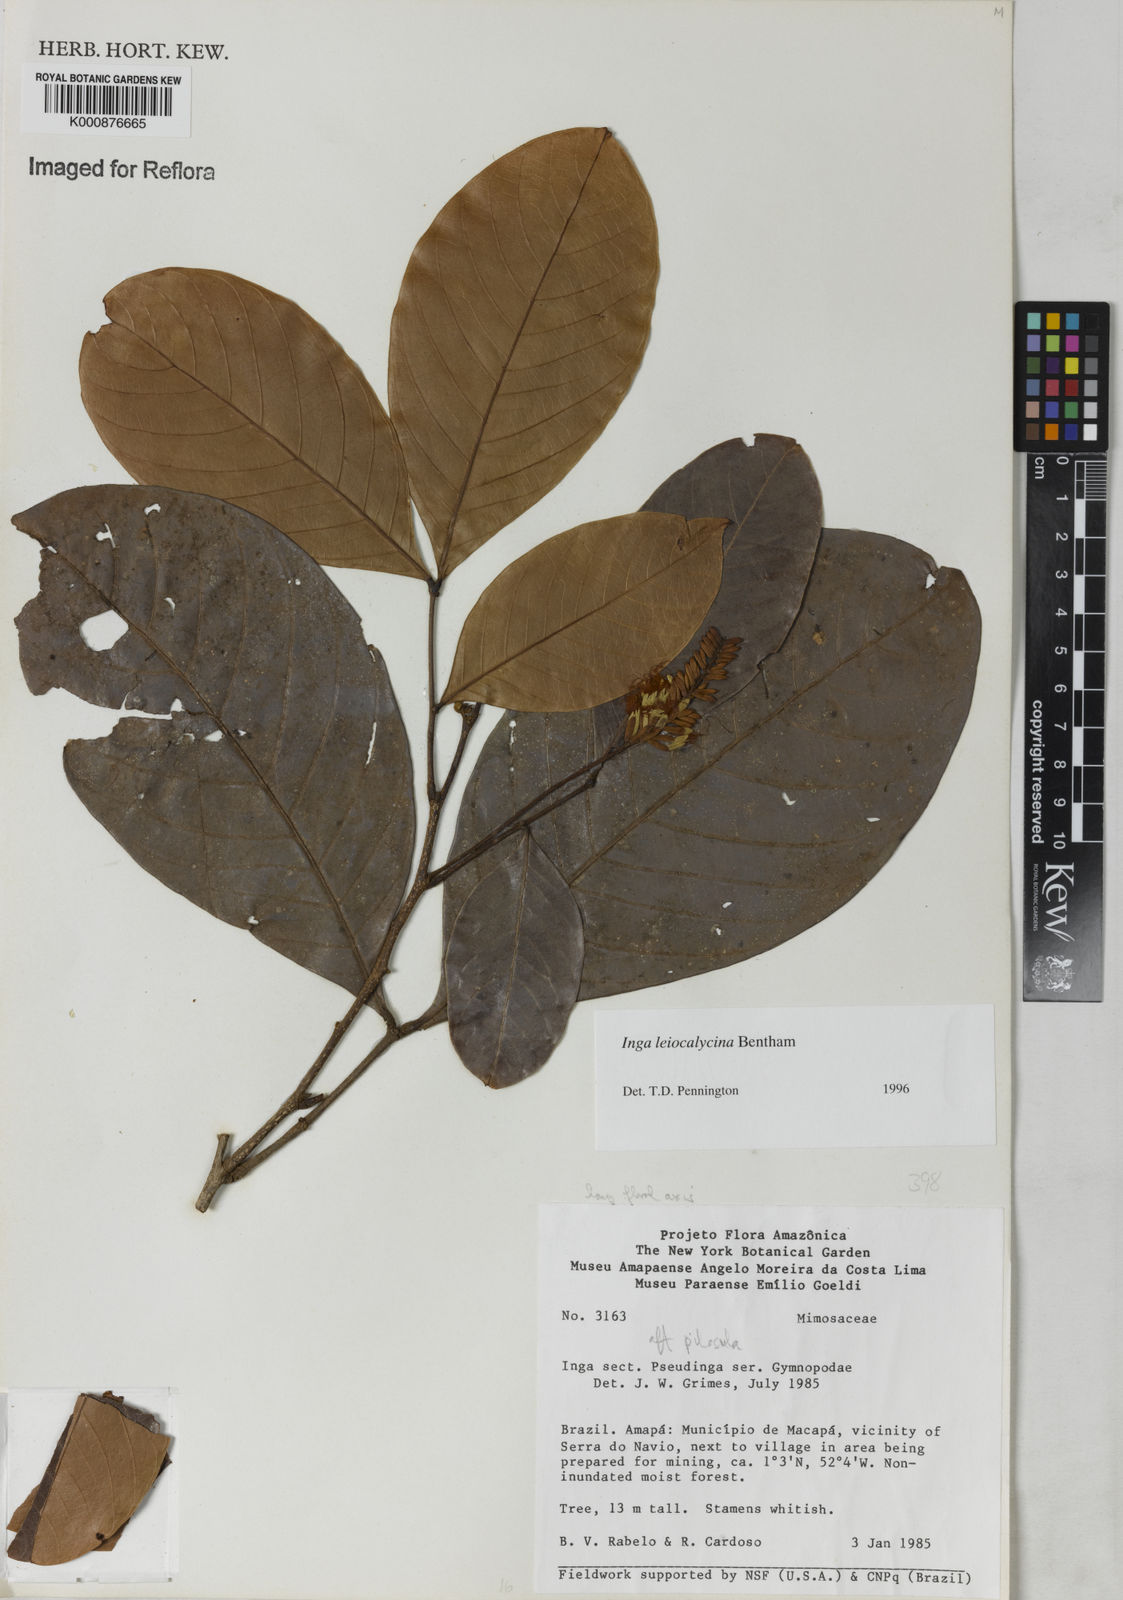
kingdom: Plantae
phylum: Tracheophyta
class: Magnoliopsida
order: Fabales
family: Fabaceae
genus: Inga
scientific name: Inga laevigata
